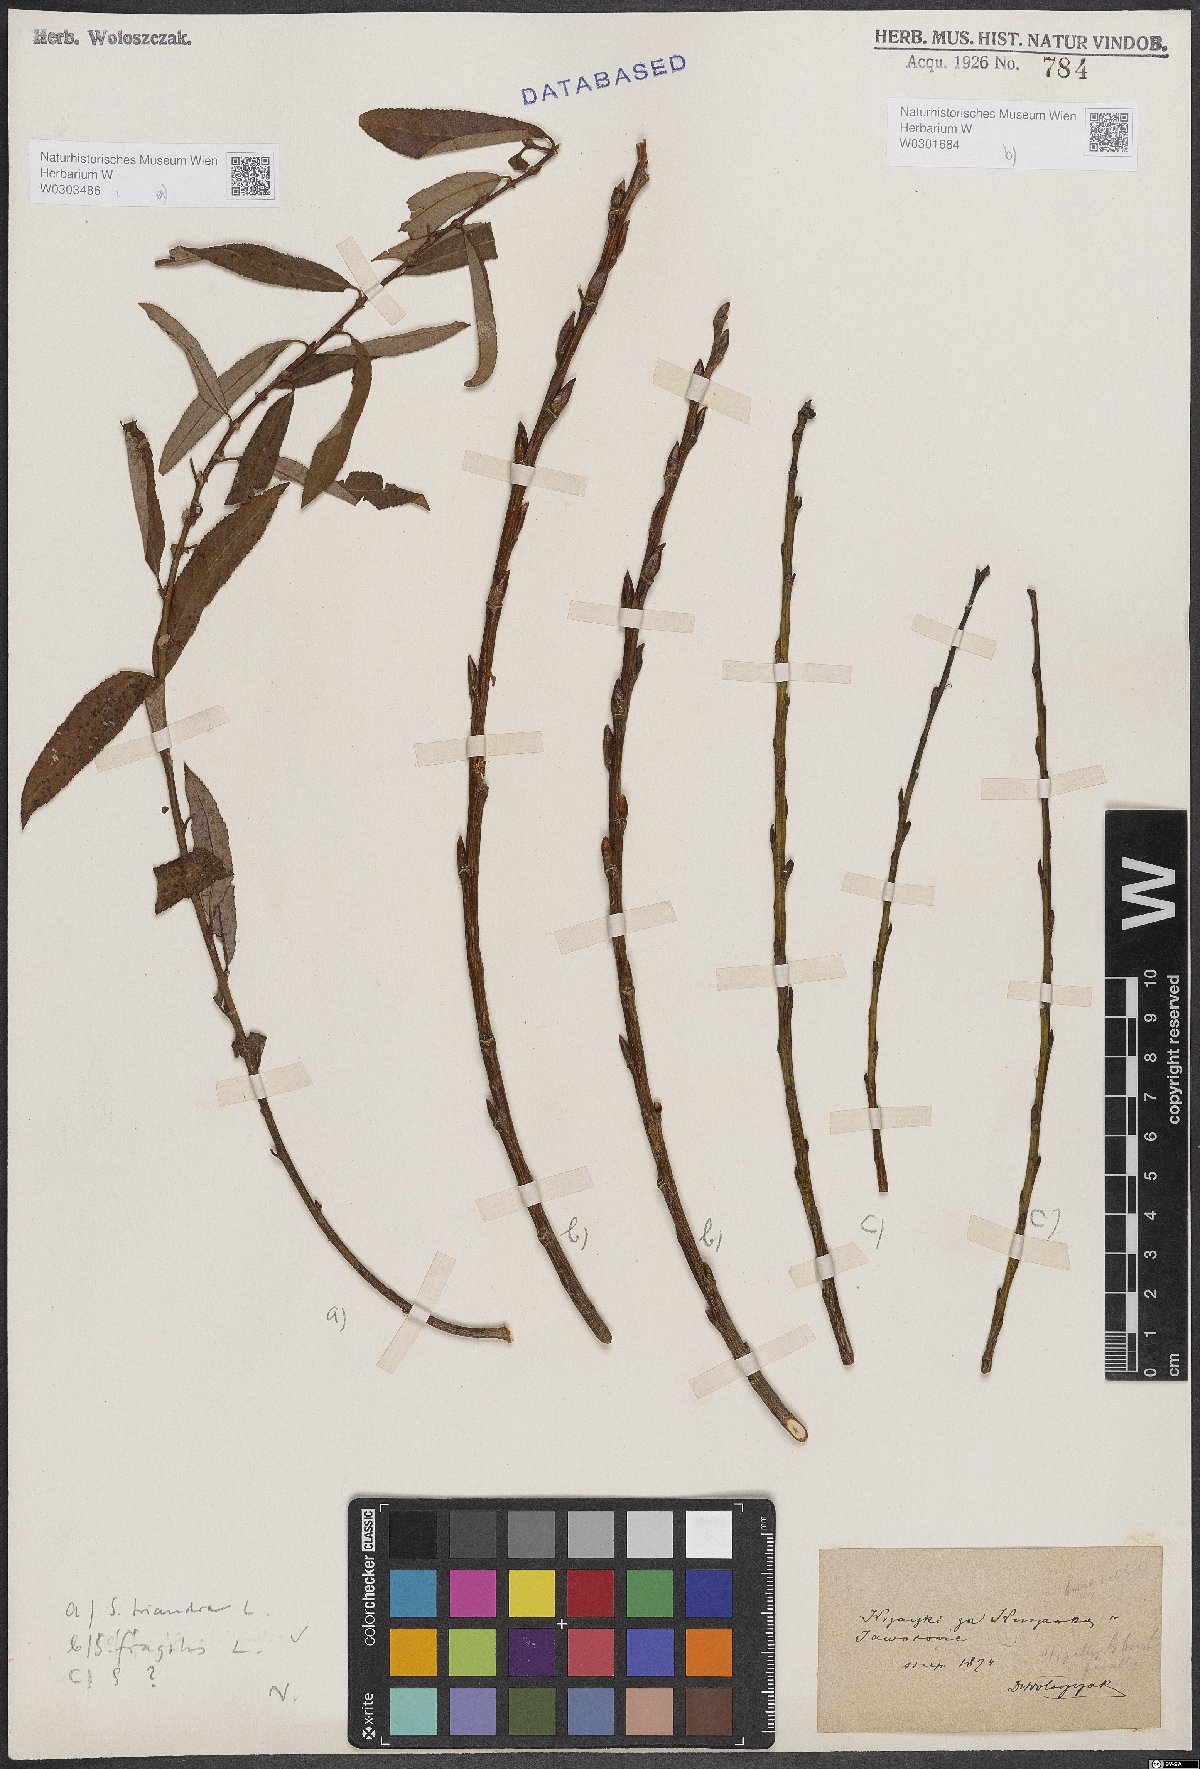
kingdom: Plantae
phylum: Tracheophyta
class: Magnoliopsida
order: Malpighiales
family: Salicaceae
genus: Salix
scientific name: Salix triandra
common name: Almond willow
